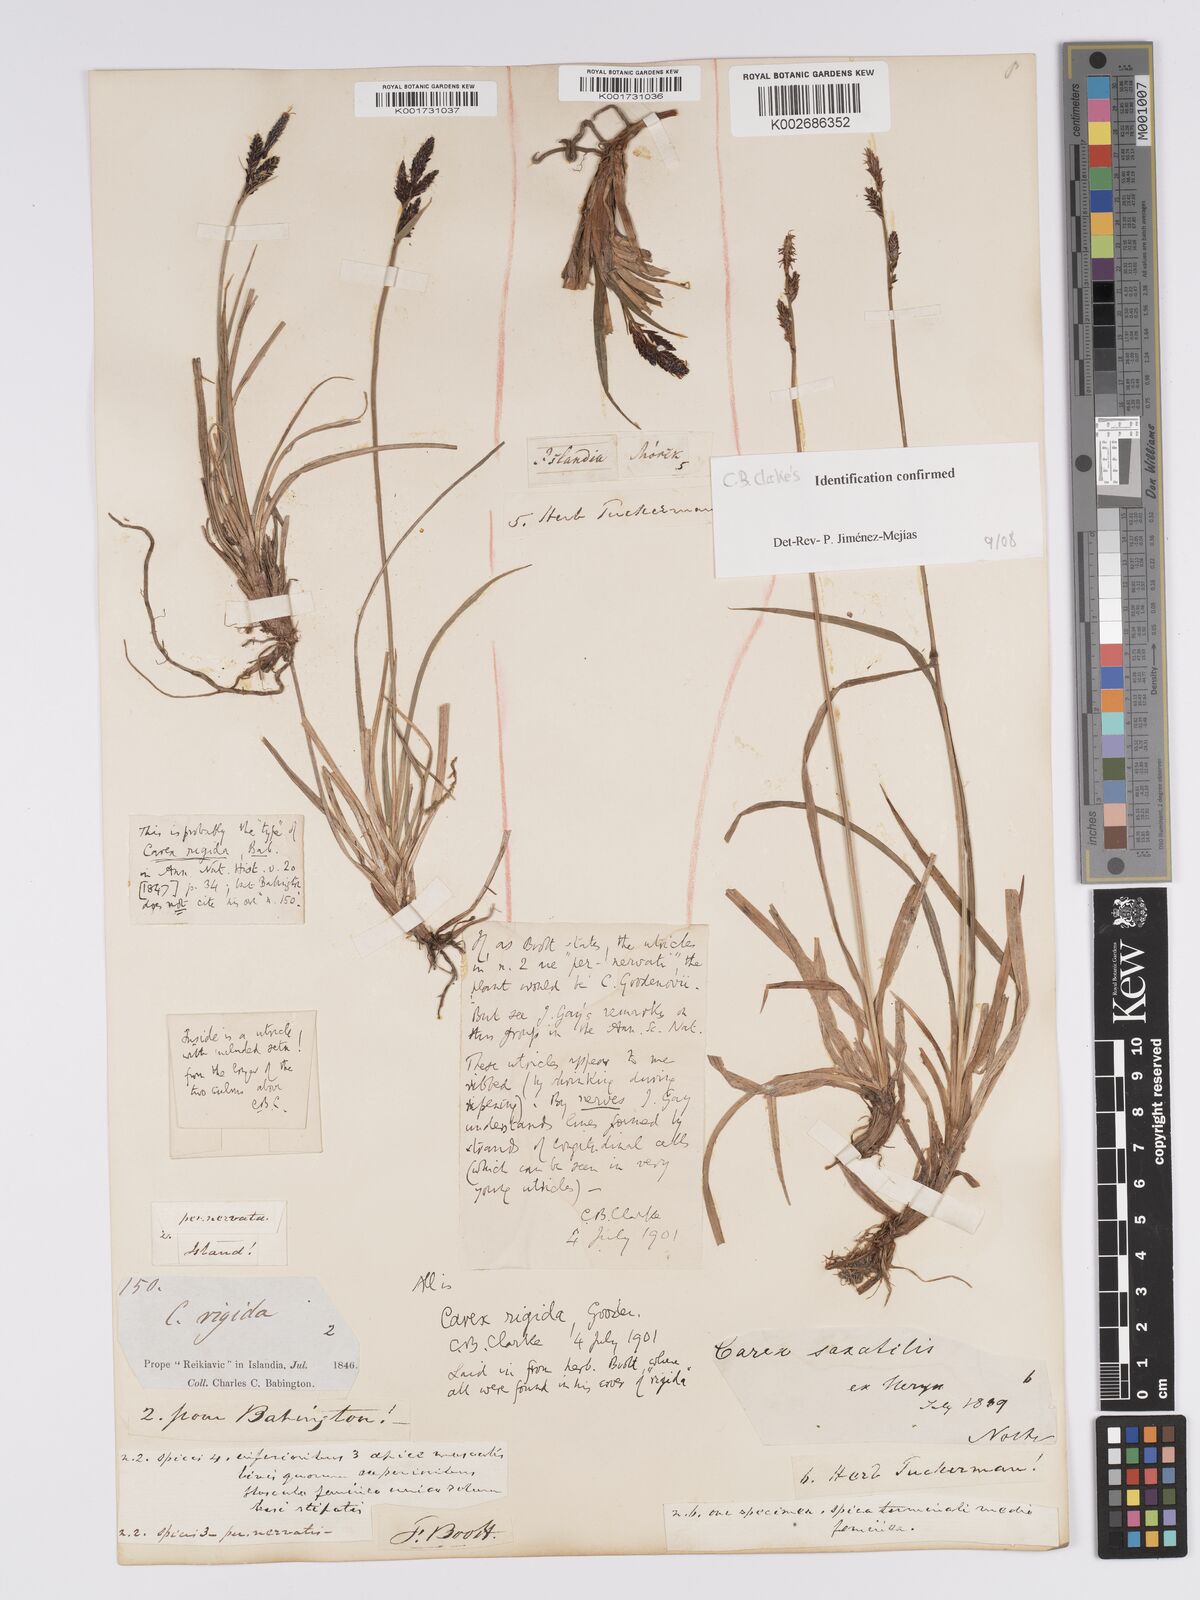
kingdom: Plantae
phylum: Tracheophyta
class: Liliopsida
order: Poales
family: Cyperaceae
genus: Carex
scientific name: Carex bigelowii
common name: Stiff sedge
